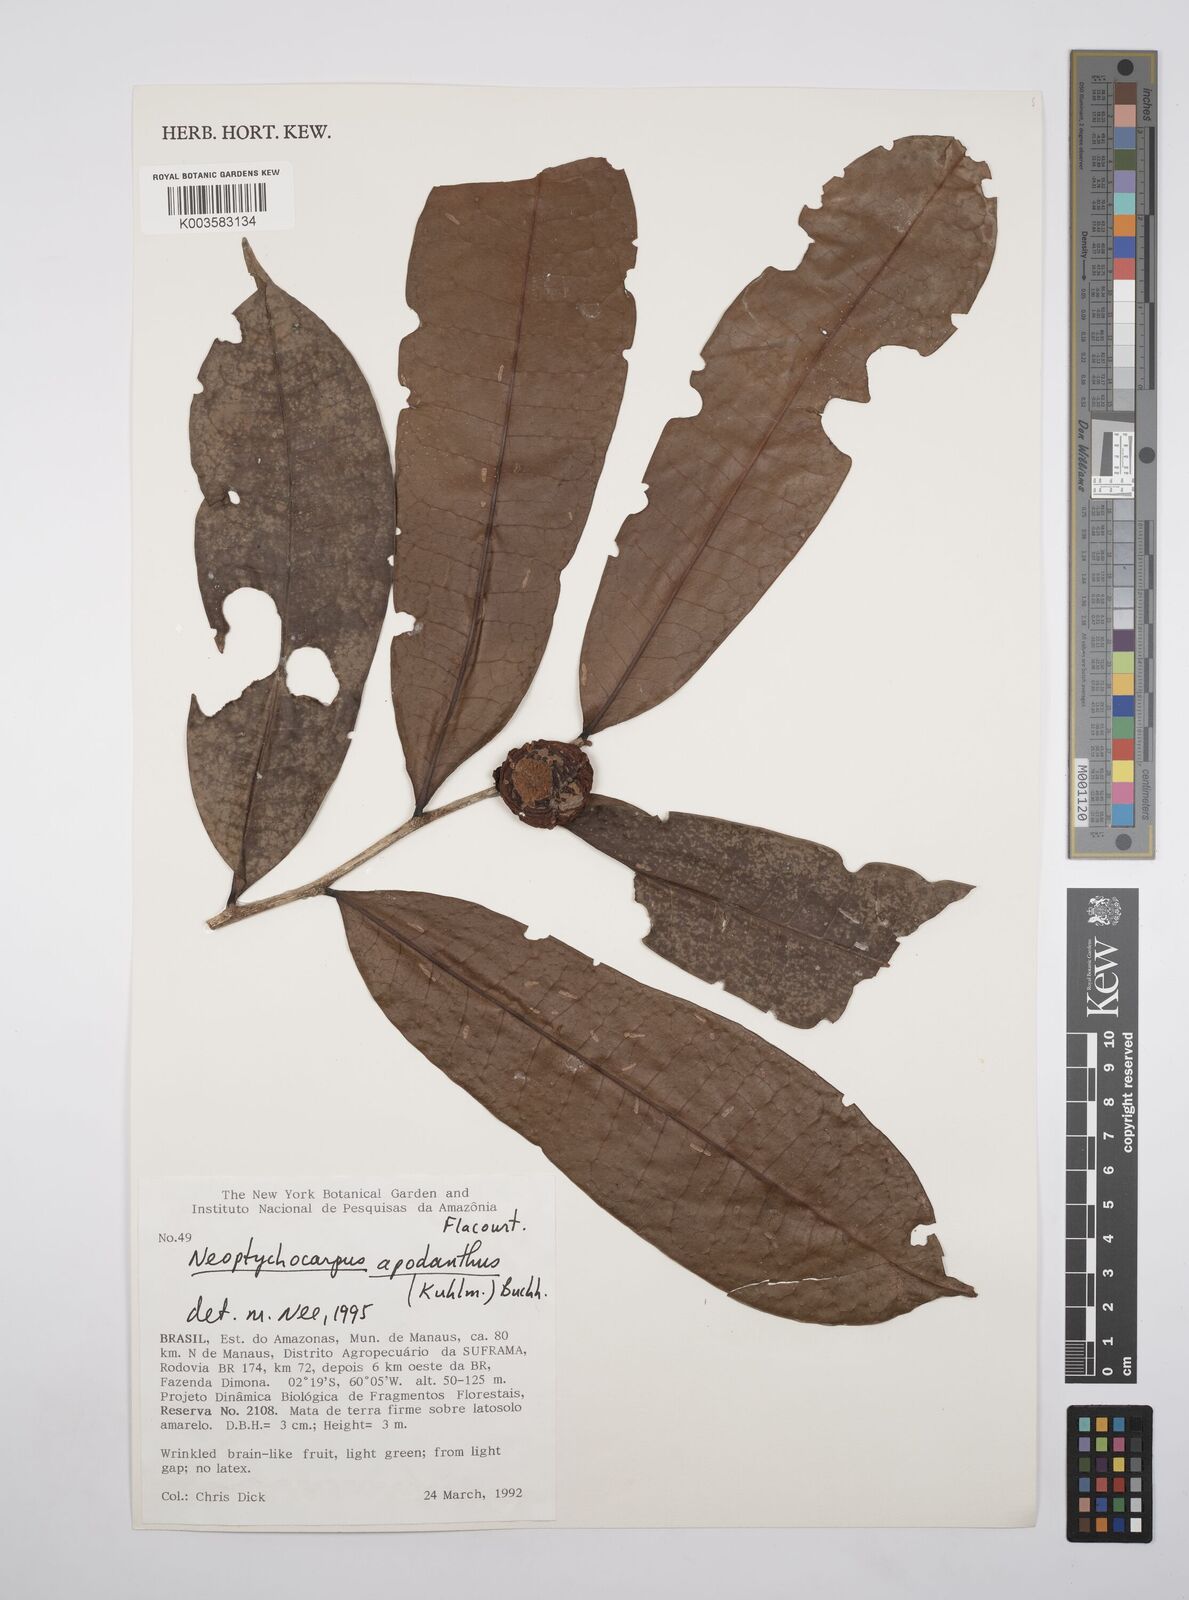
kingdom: Plantae
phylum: Tracheophyta
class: Magnoliopsida
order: Malpighiales
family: Salicaceae
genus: Casearia
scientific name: Casearia apodantha
